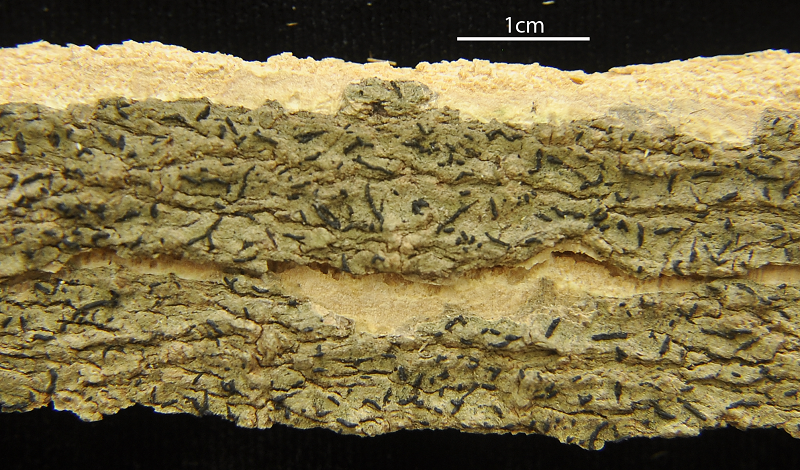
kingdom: Fungi
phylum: Ascomycota
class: Arthoniomycetes
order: Arthoniales
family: Opegraphaceae
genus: Opegrapha
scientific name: Opegrapha
